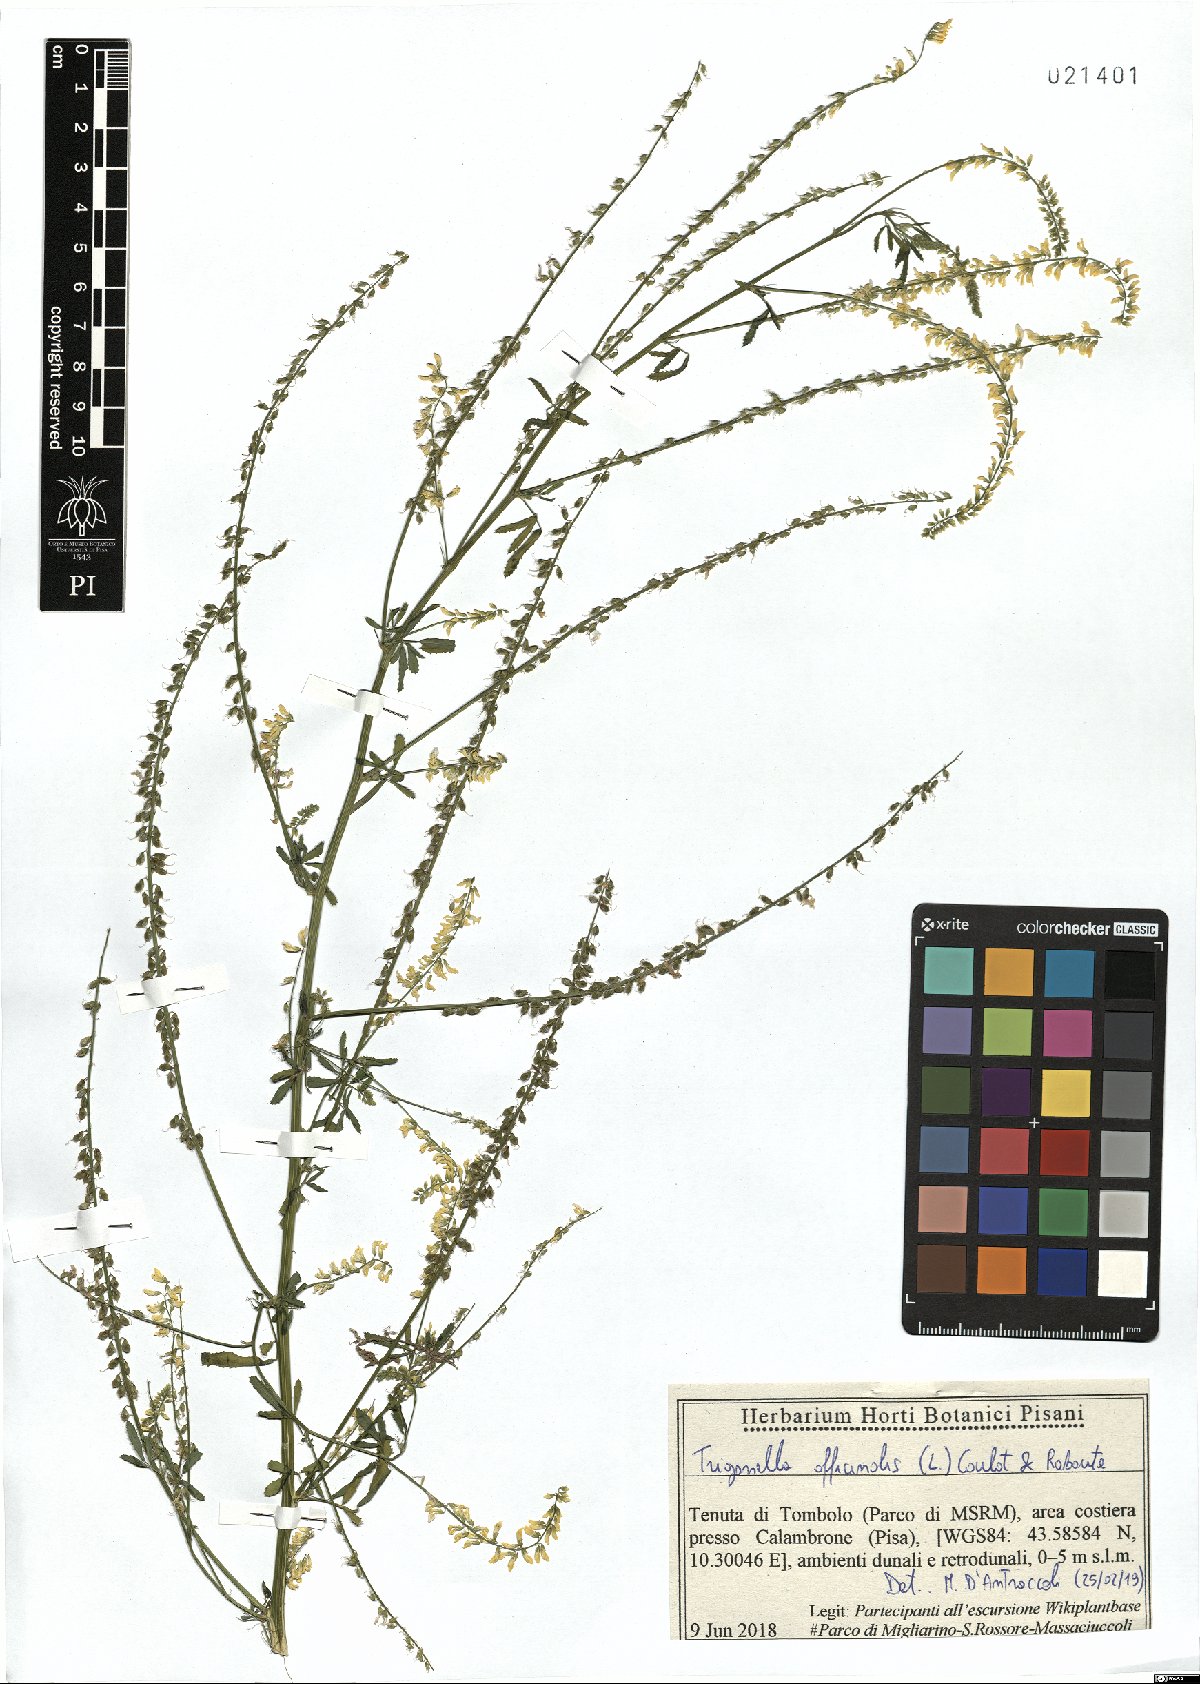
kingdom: Plantae
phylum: Tracheophyta
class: Magnoliopsida
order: Fabales
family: Fabaceae
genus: Melilotus
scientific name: Melilotus officinalis
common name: Sweetclover
